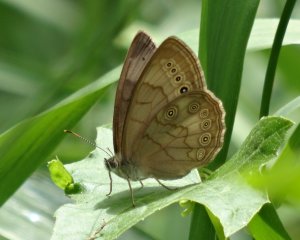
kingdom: Animalia
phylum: Arthropoda
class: Insecta
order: Lepidoptera
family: Nymphalidae
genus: Lethe
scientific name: Lethe eurydice
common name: Eyed Brown
